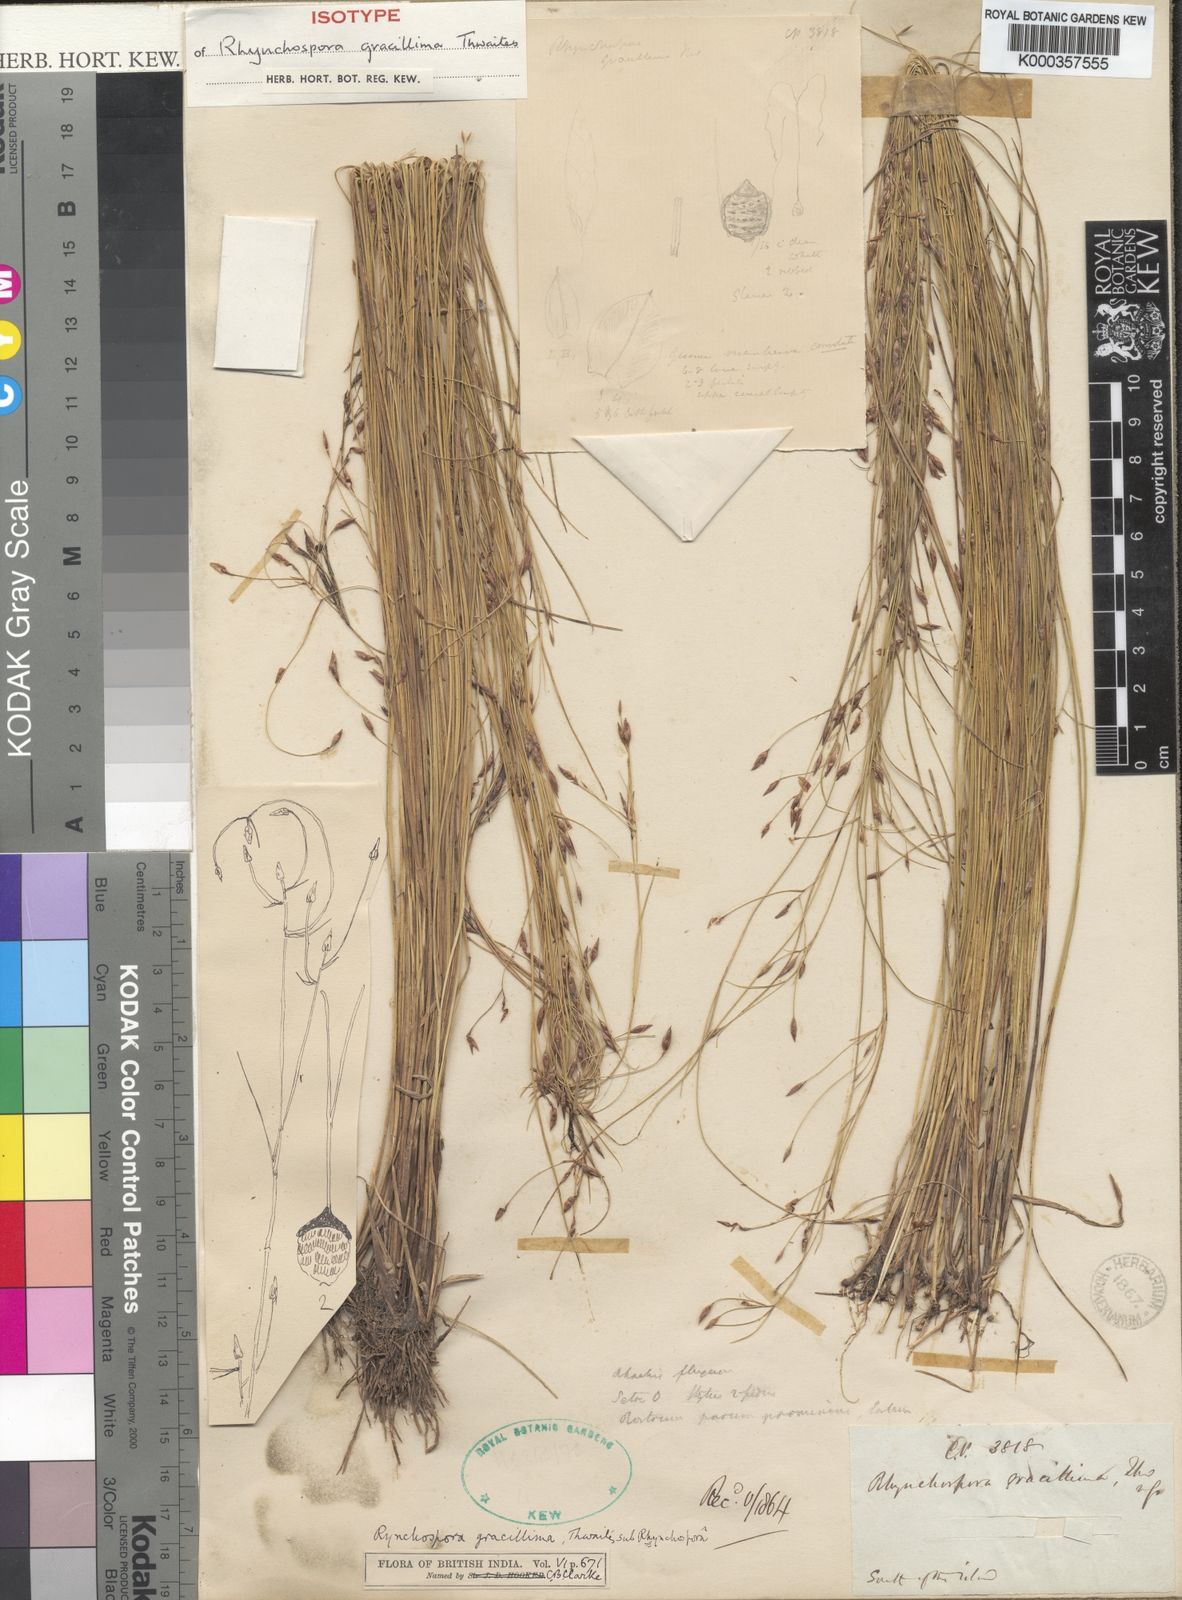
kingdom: Plantae
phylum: Tracheophyta
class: Liliopsida
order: Poales
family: Cyperaceae
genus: Rhynchospora
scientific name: Rhynchospora gracillima
